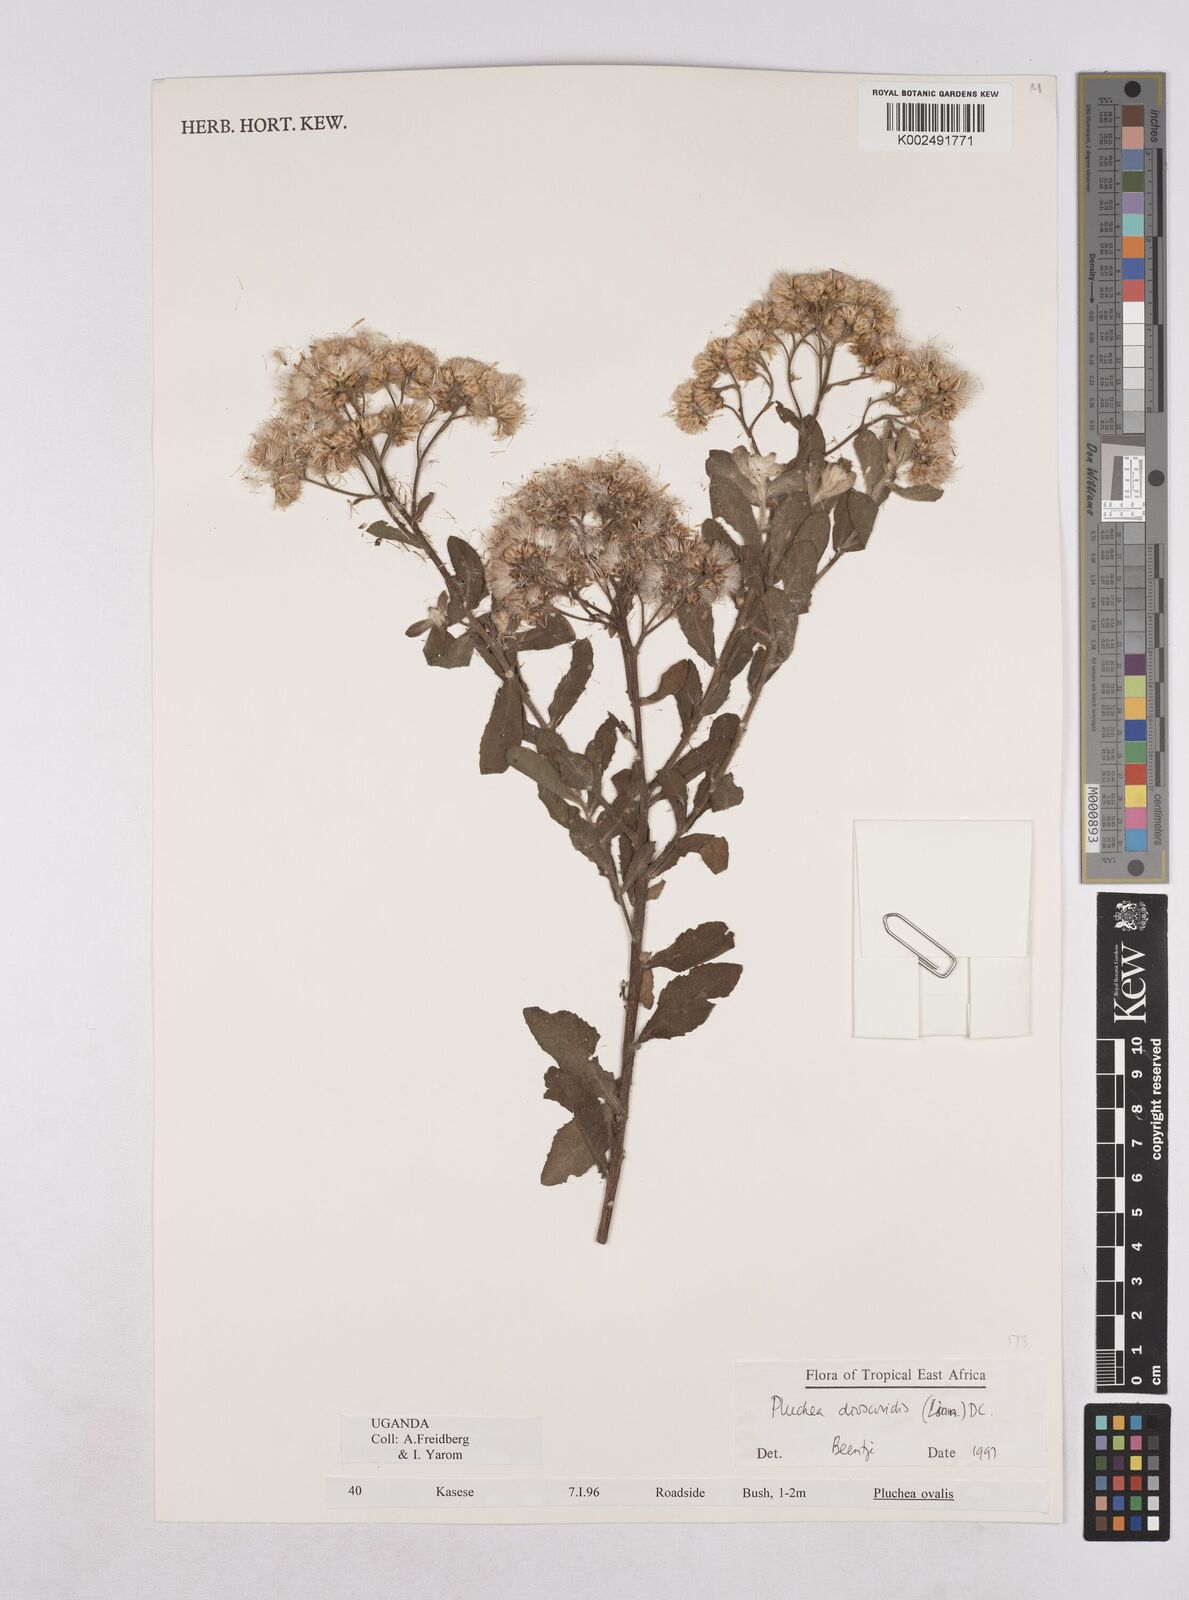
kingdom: Plantae
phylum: Tracheophyta
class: Magnoliopsida
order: Asterales
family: Asteraceae
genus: Pluchea
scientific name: Pluchea dioscoridis
